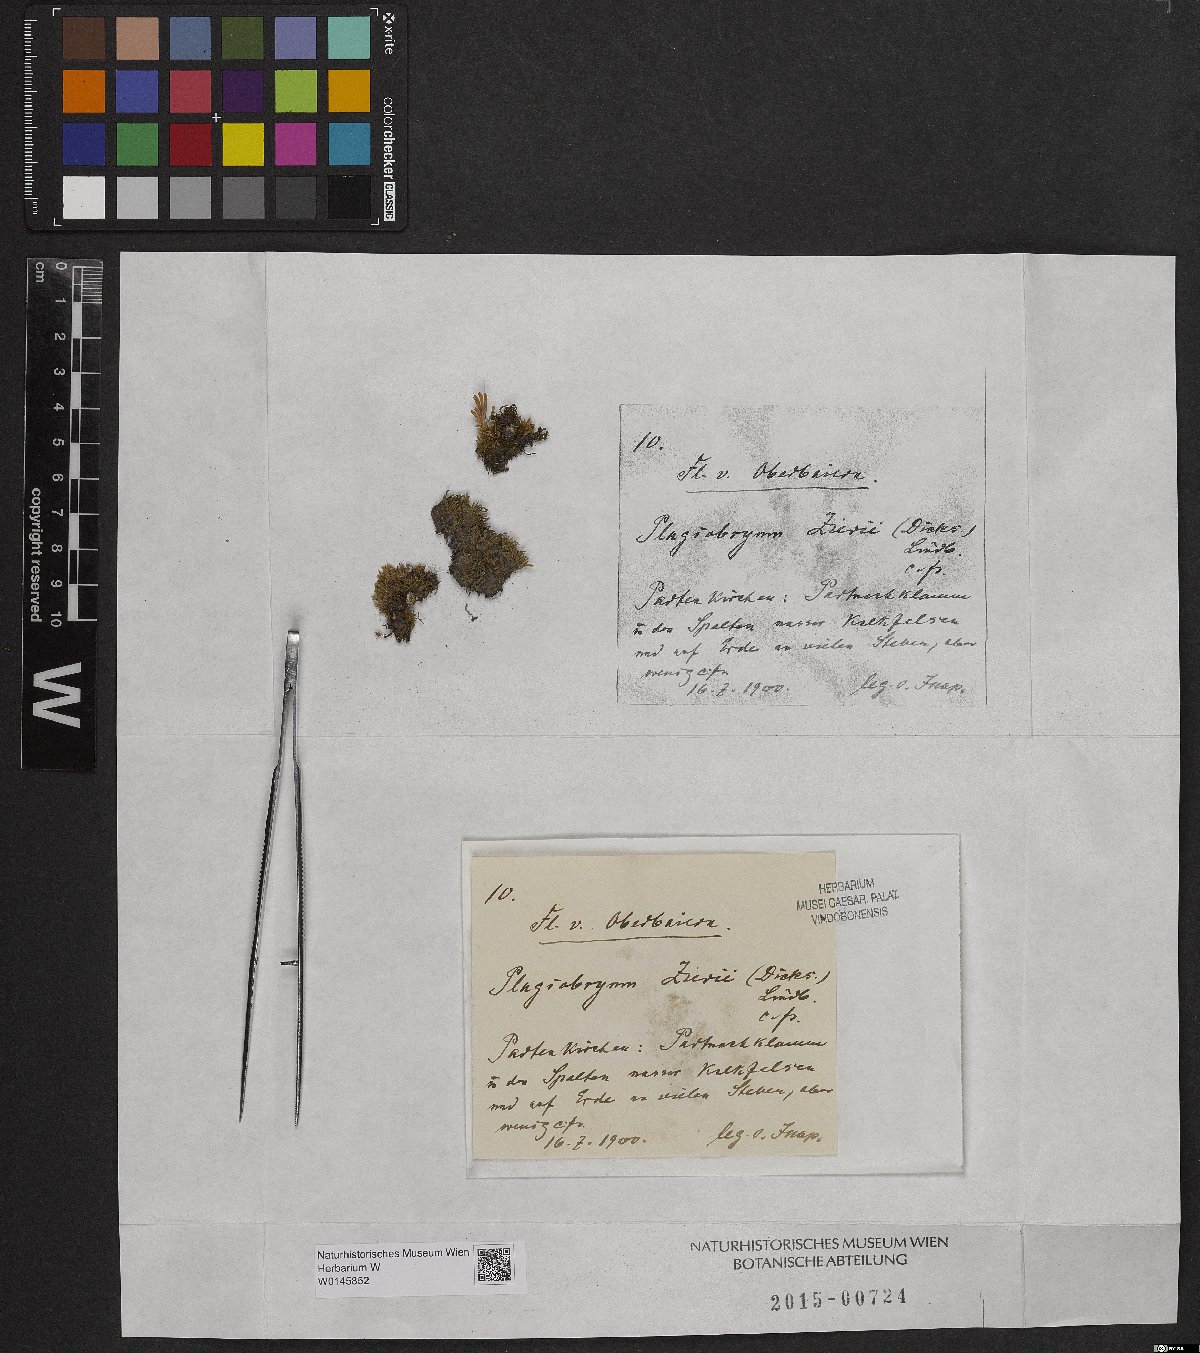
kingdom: Plantae
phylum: Bryophyta
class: Bryopsida
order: Bryales
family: Bryaceae
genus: Plagiobryum
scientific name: Plagiobryum zieri
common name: Zier's hump moss
